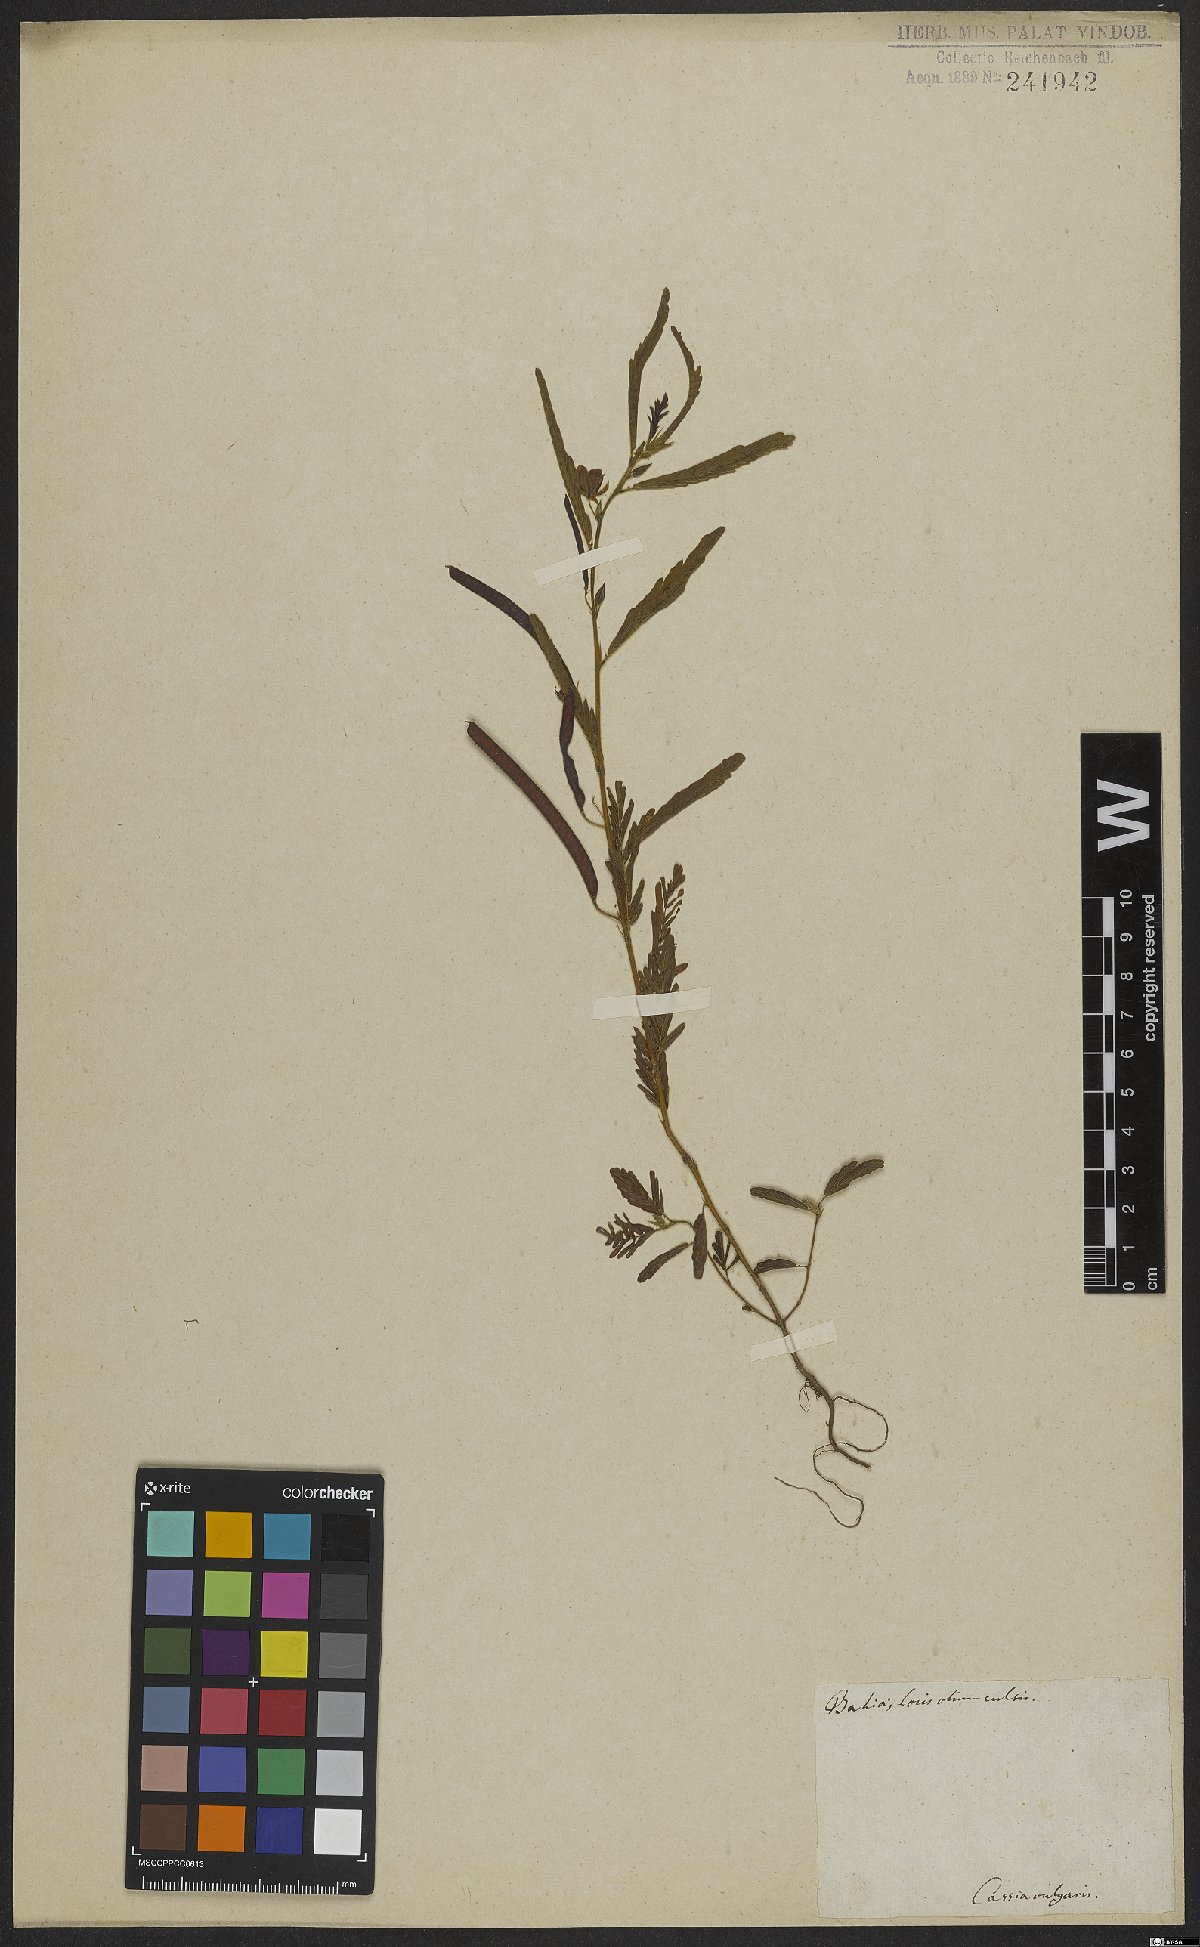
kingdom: Plantae
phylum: Tracheophyta
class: Magnoliopsida
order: Fabales
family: Fabaceae
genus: Cassia
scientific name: Cassia vulgaris
